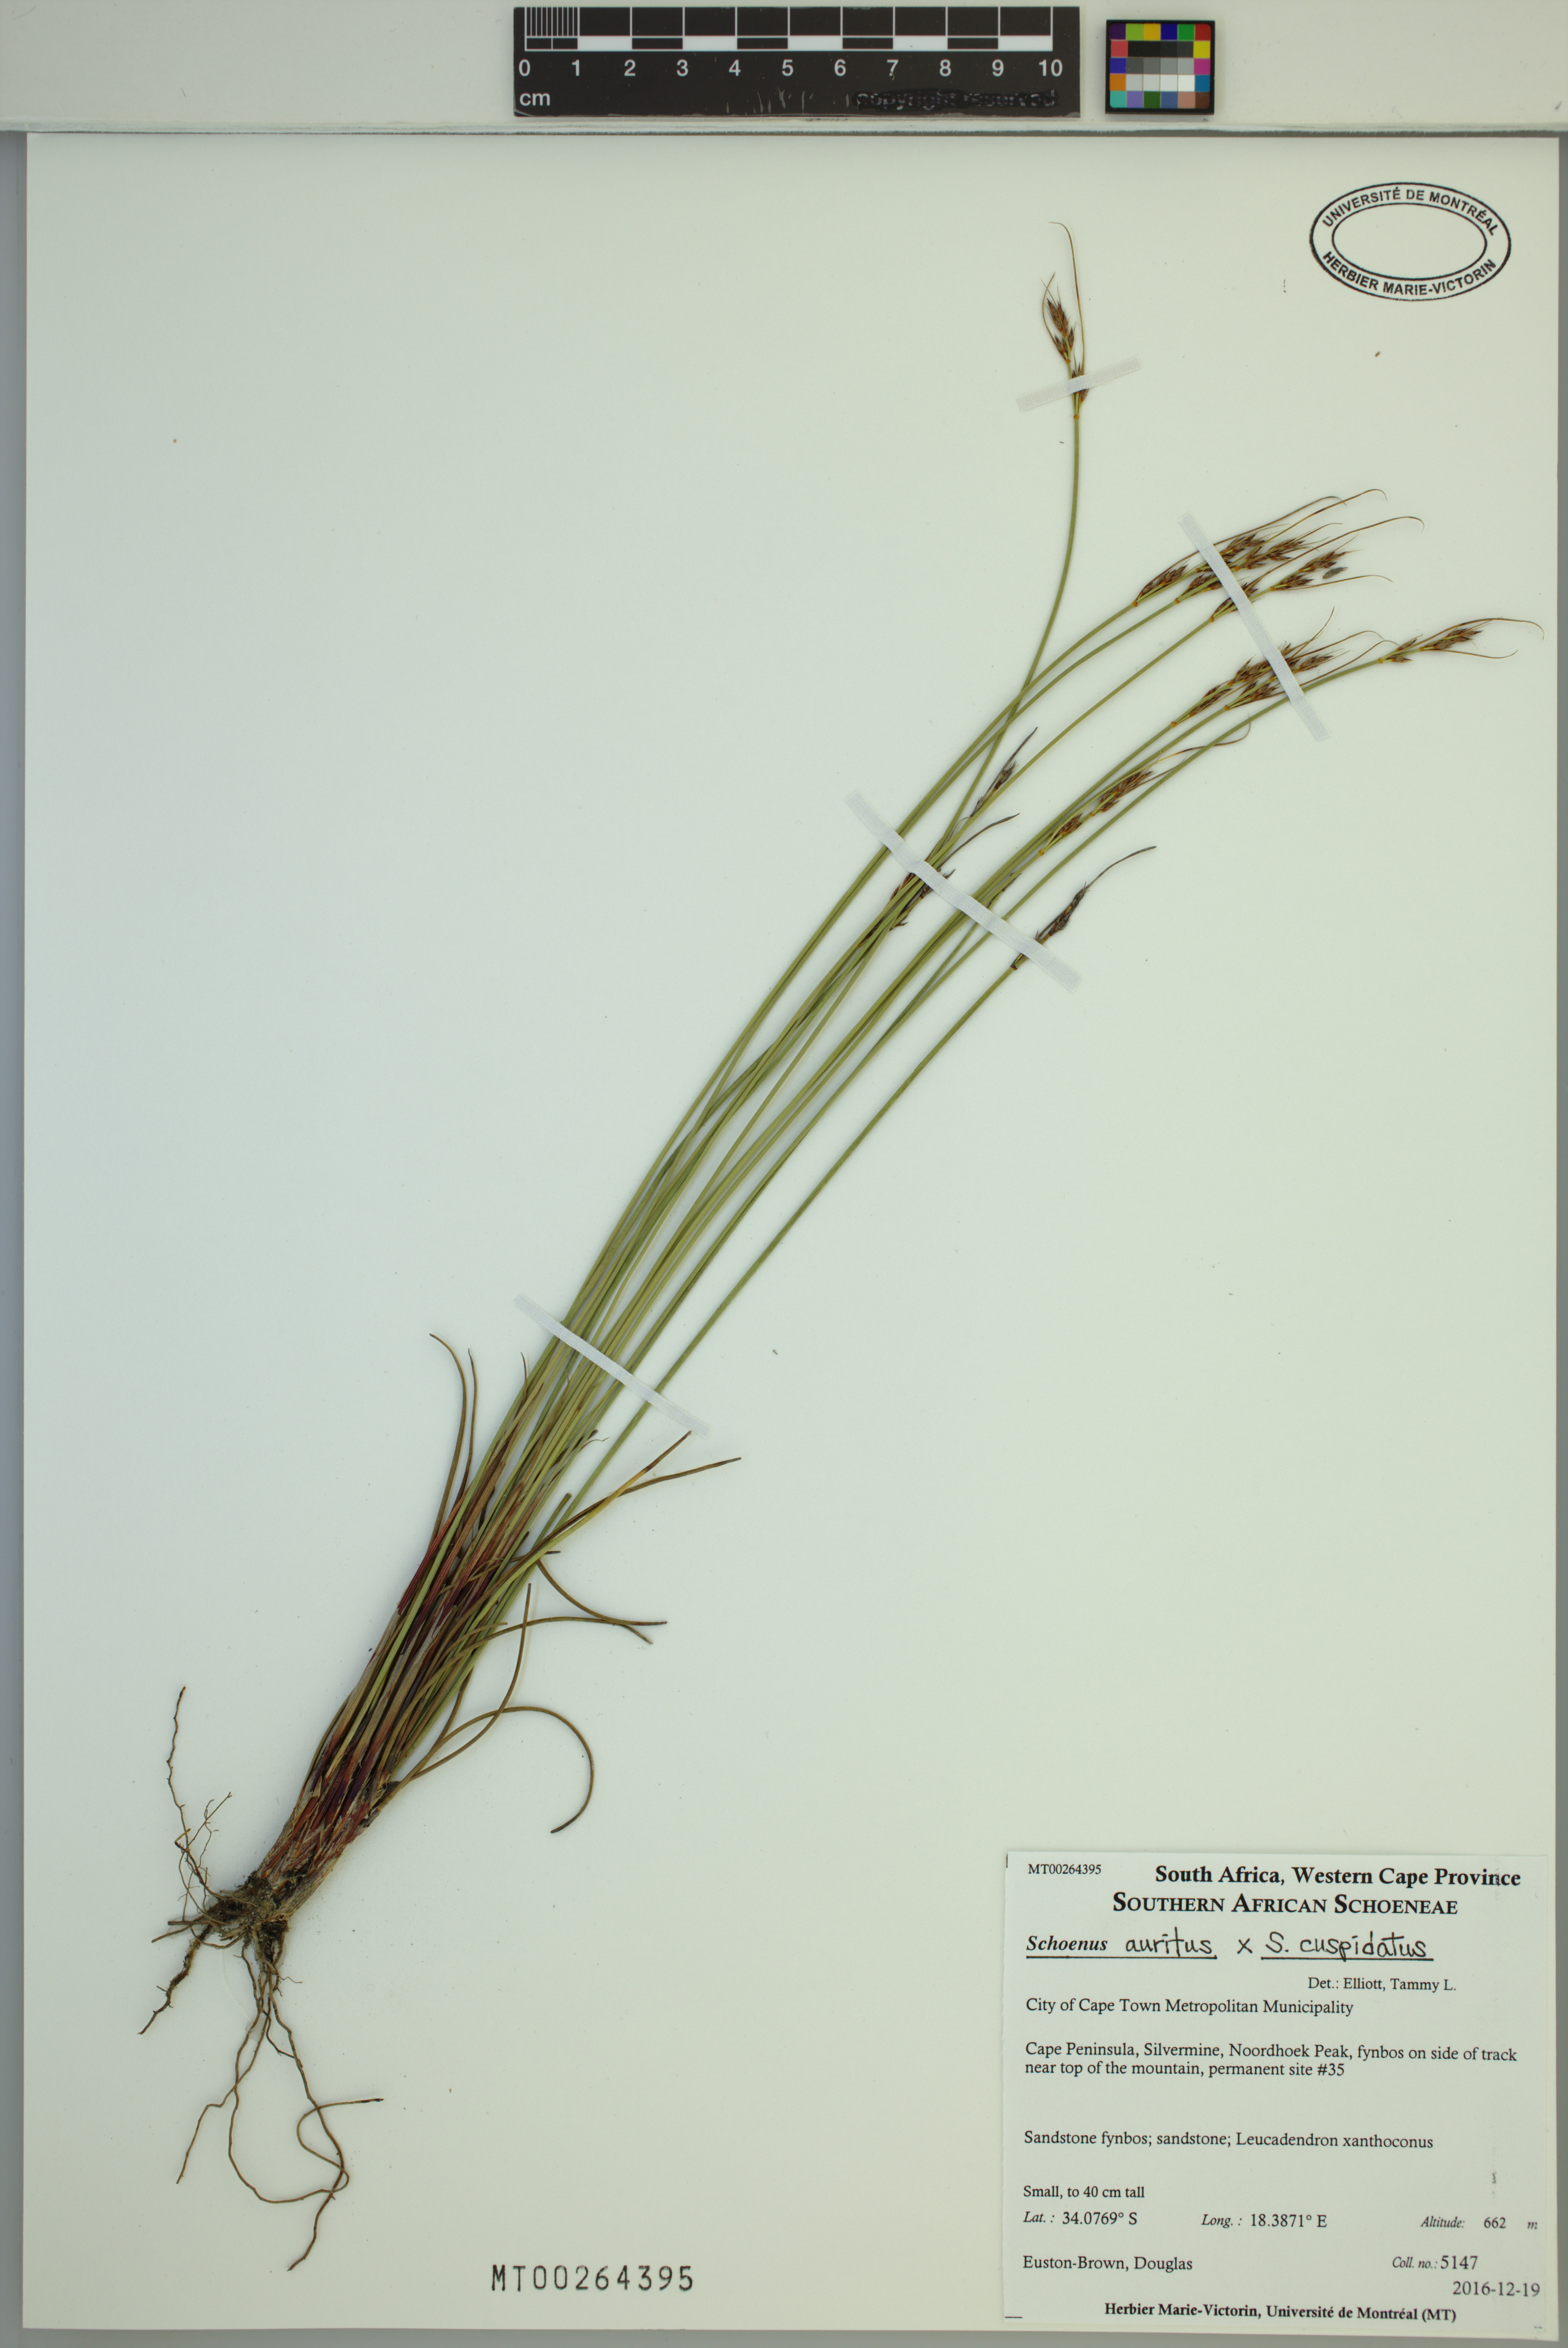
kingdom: Plantae
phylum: Tracheophyta
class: Liliopsida
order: Poales
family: Cyperaceae
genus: Schoenus
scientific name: Schoenus auritus
